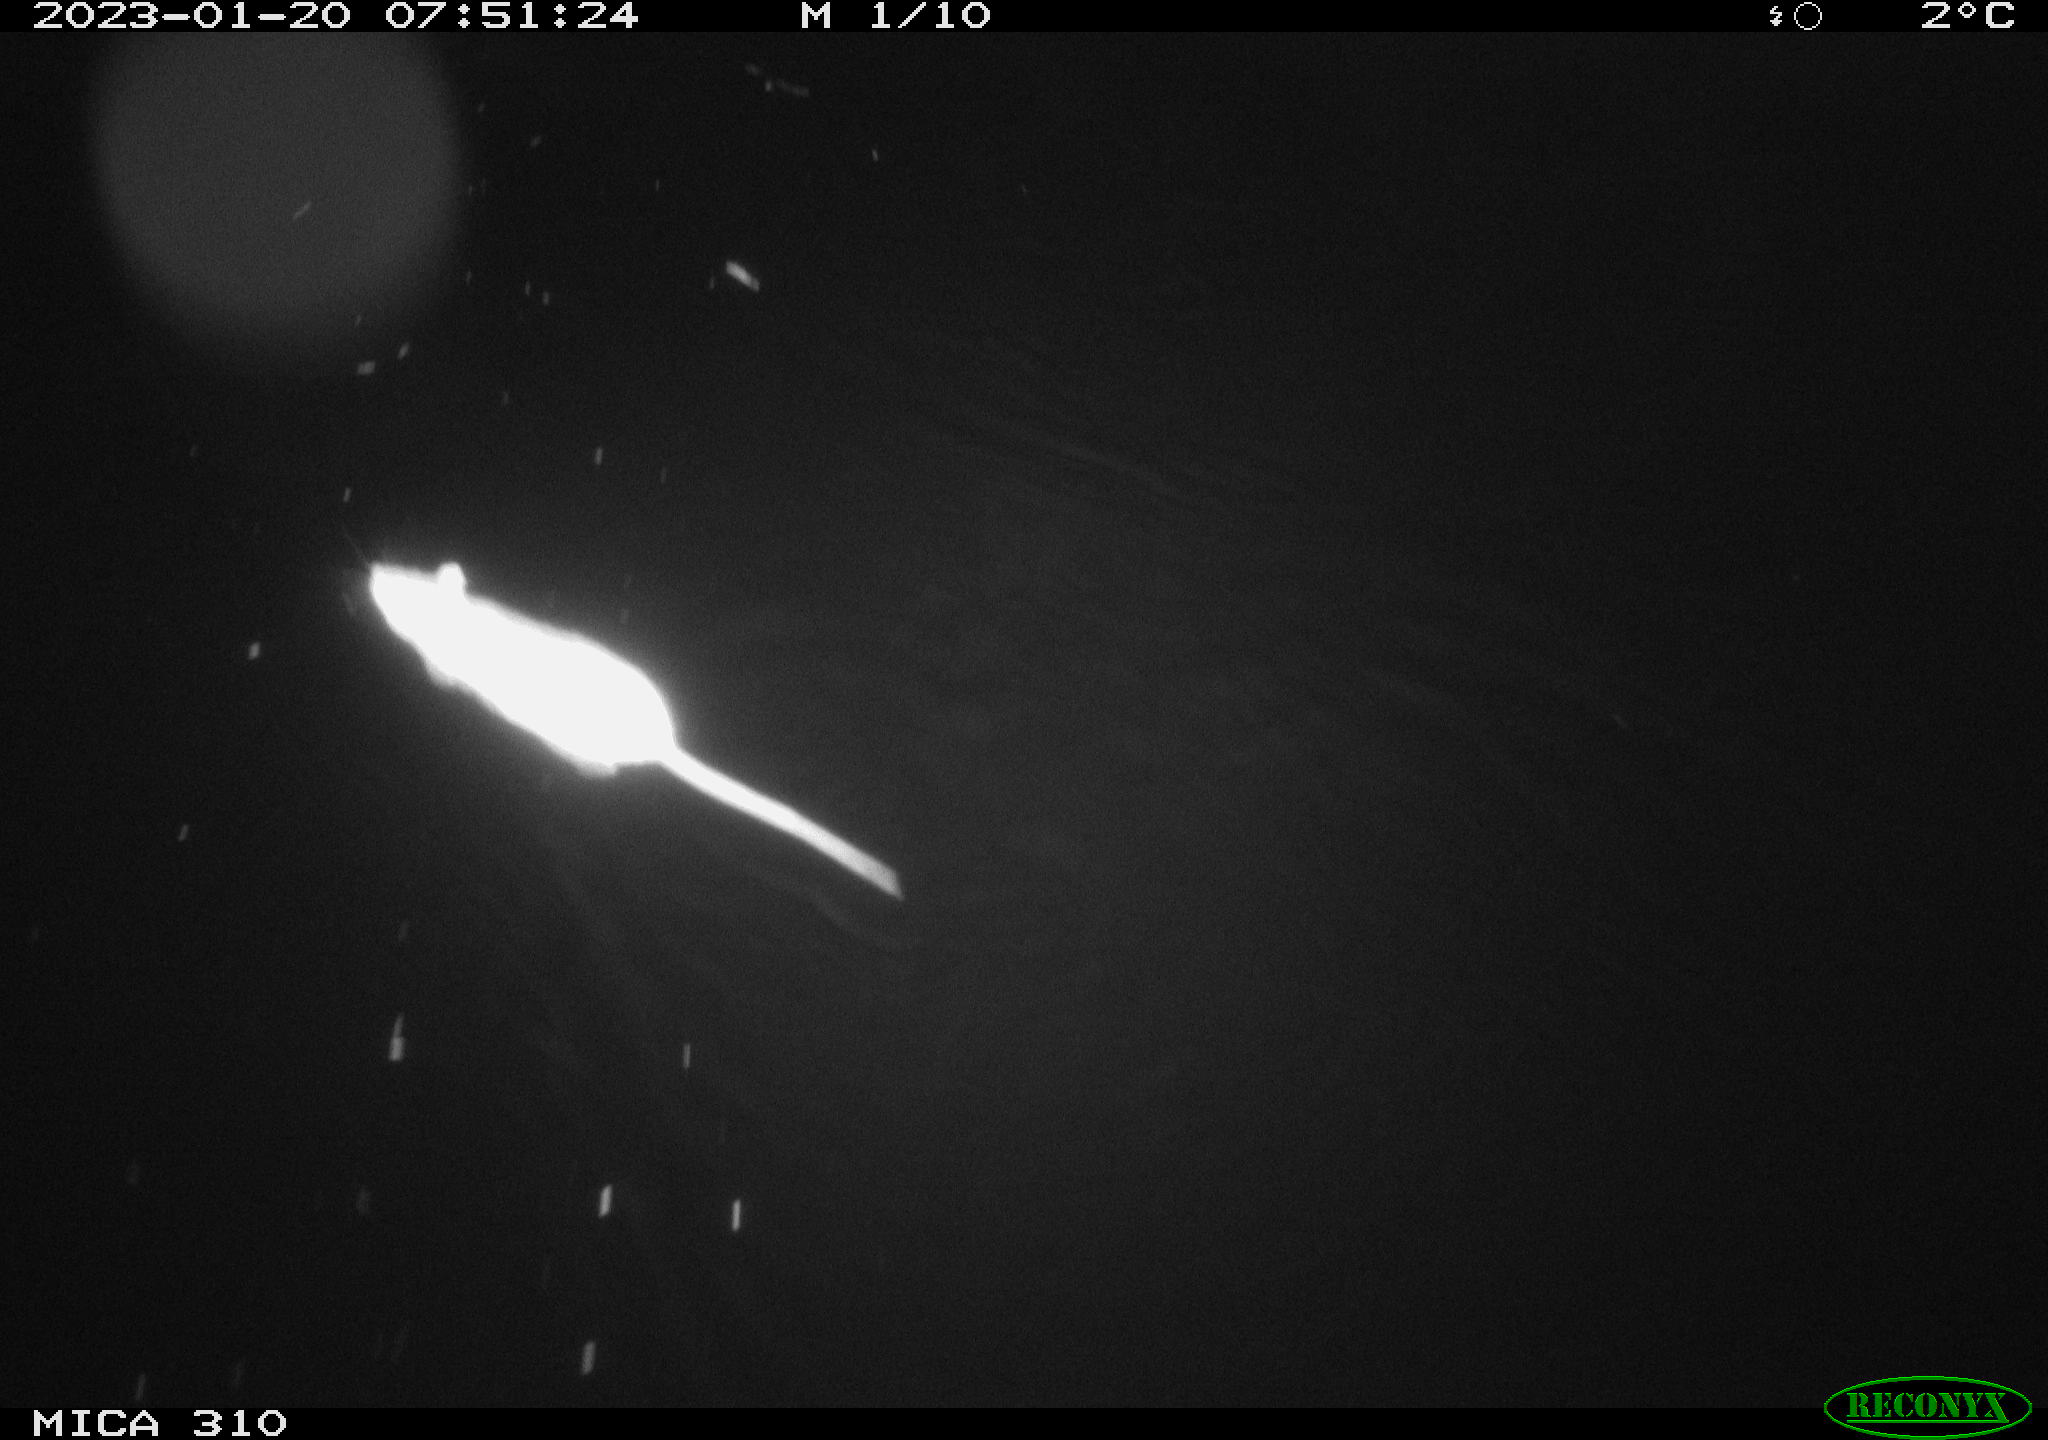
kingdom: Animalia
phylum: Chordata
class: Aves
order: Anseriformes
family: Anatidae
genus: Anas
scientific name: Anas
